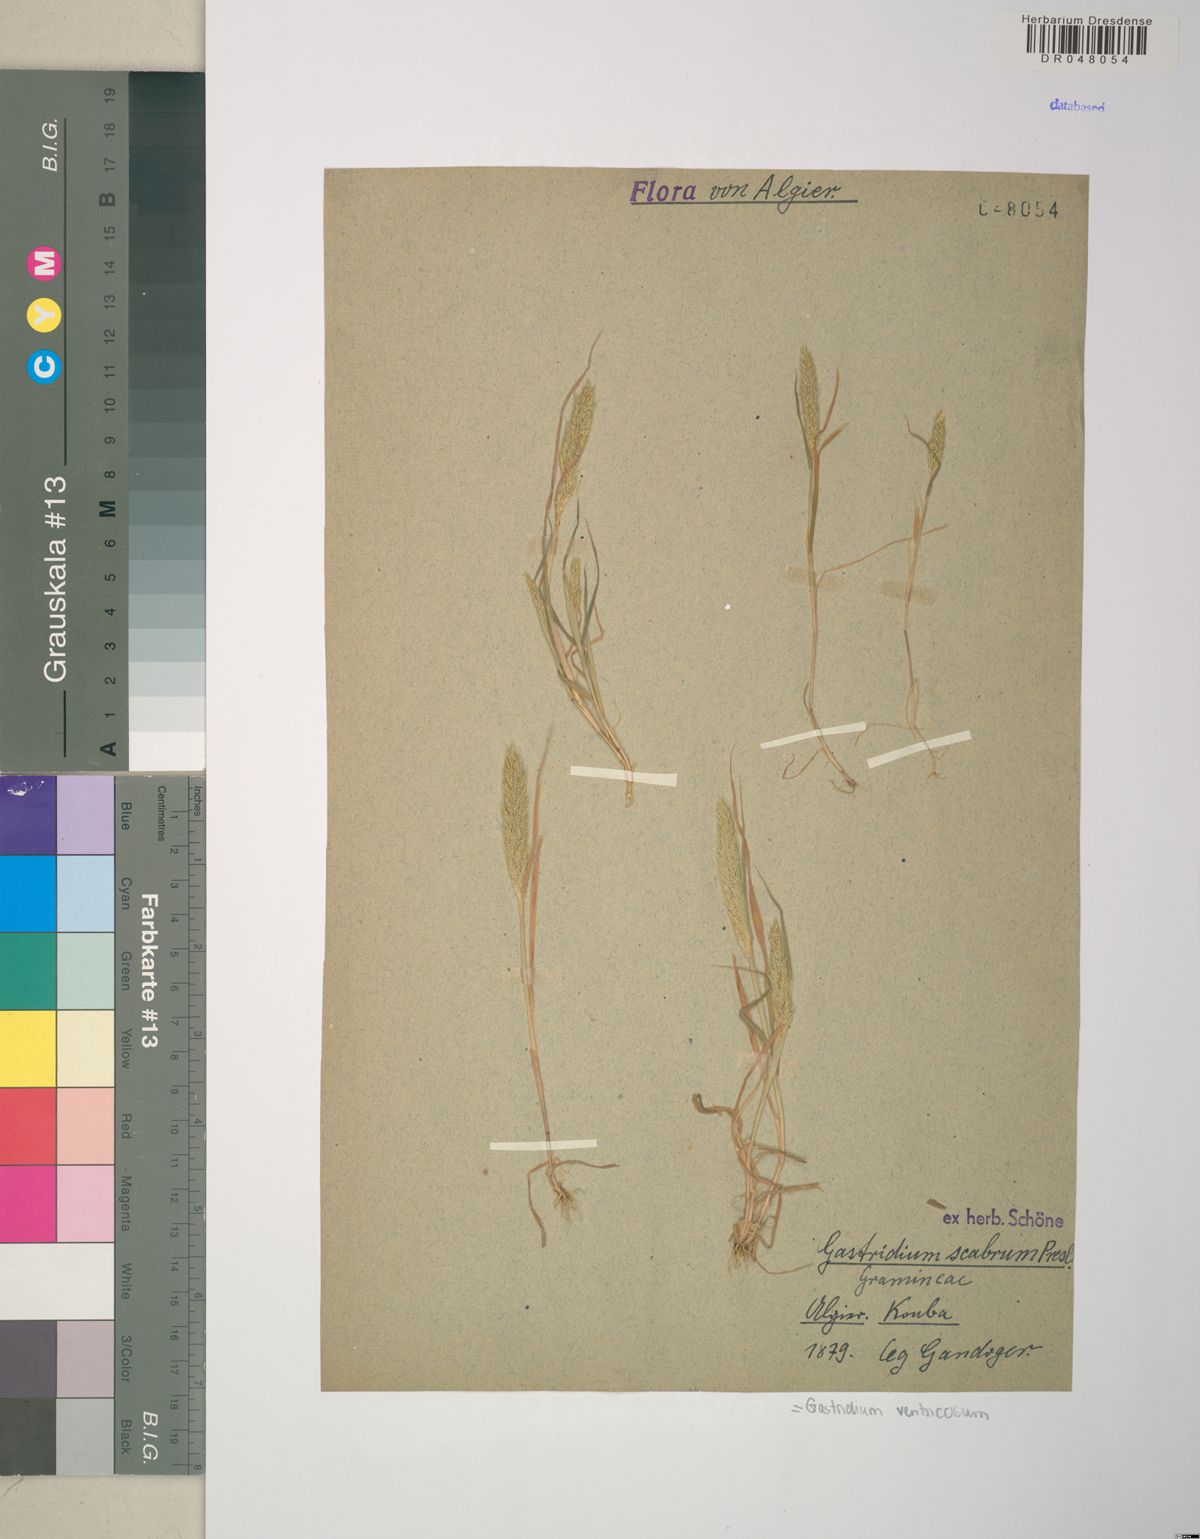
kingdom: Plantae
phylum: Tracheophyta
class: Liliopsida
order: Poales
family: Poaceae
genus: Gastridium
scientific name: Gastridium ventricosum
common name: Nit-grass
